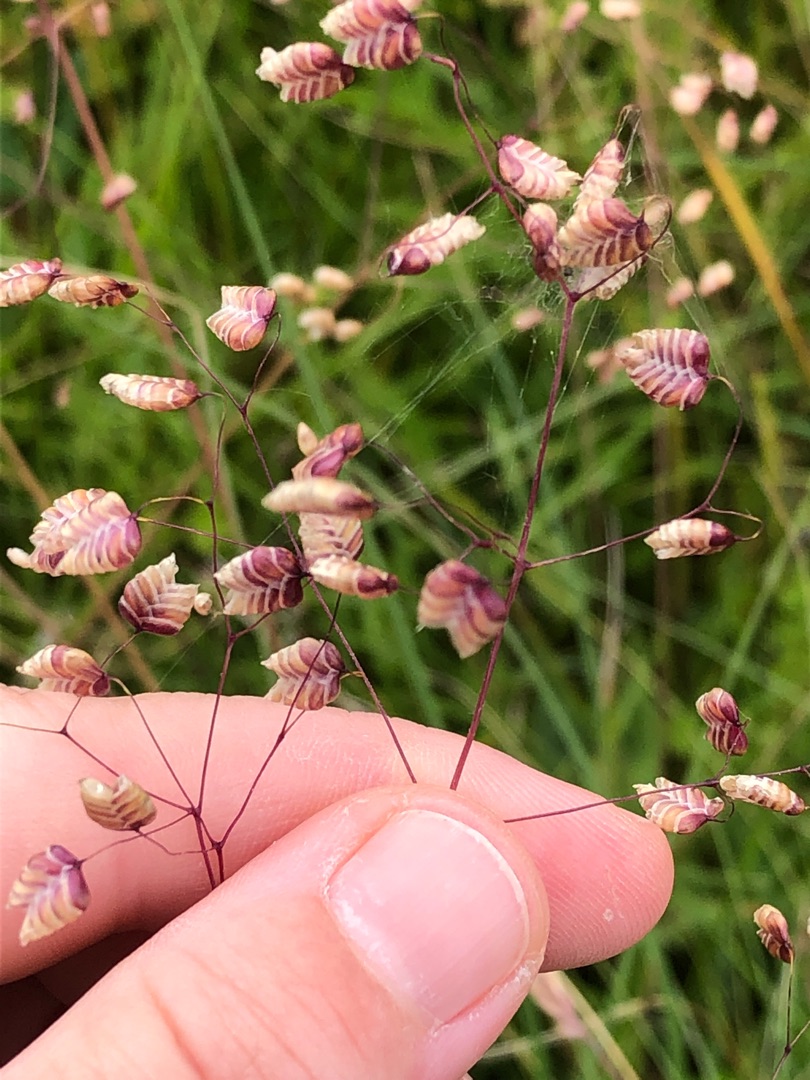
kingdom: Plantae
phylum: Tracheophyta
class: Liliopsida
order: Poales
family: Poaceae
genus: Briza
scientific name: Briza media
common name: Hjertegræs
